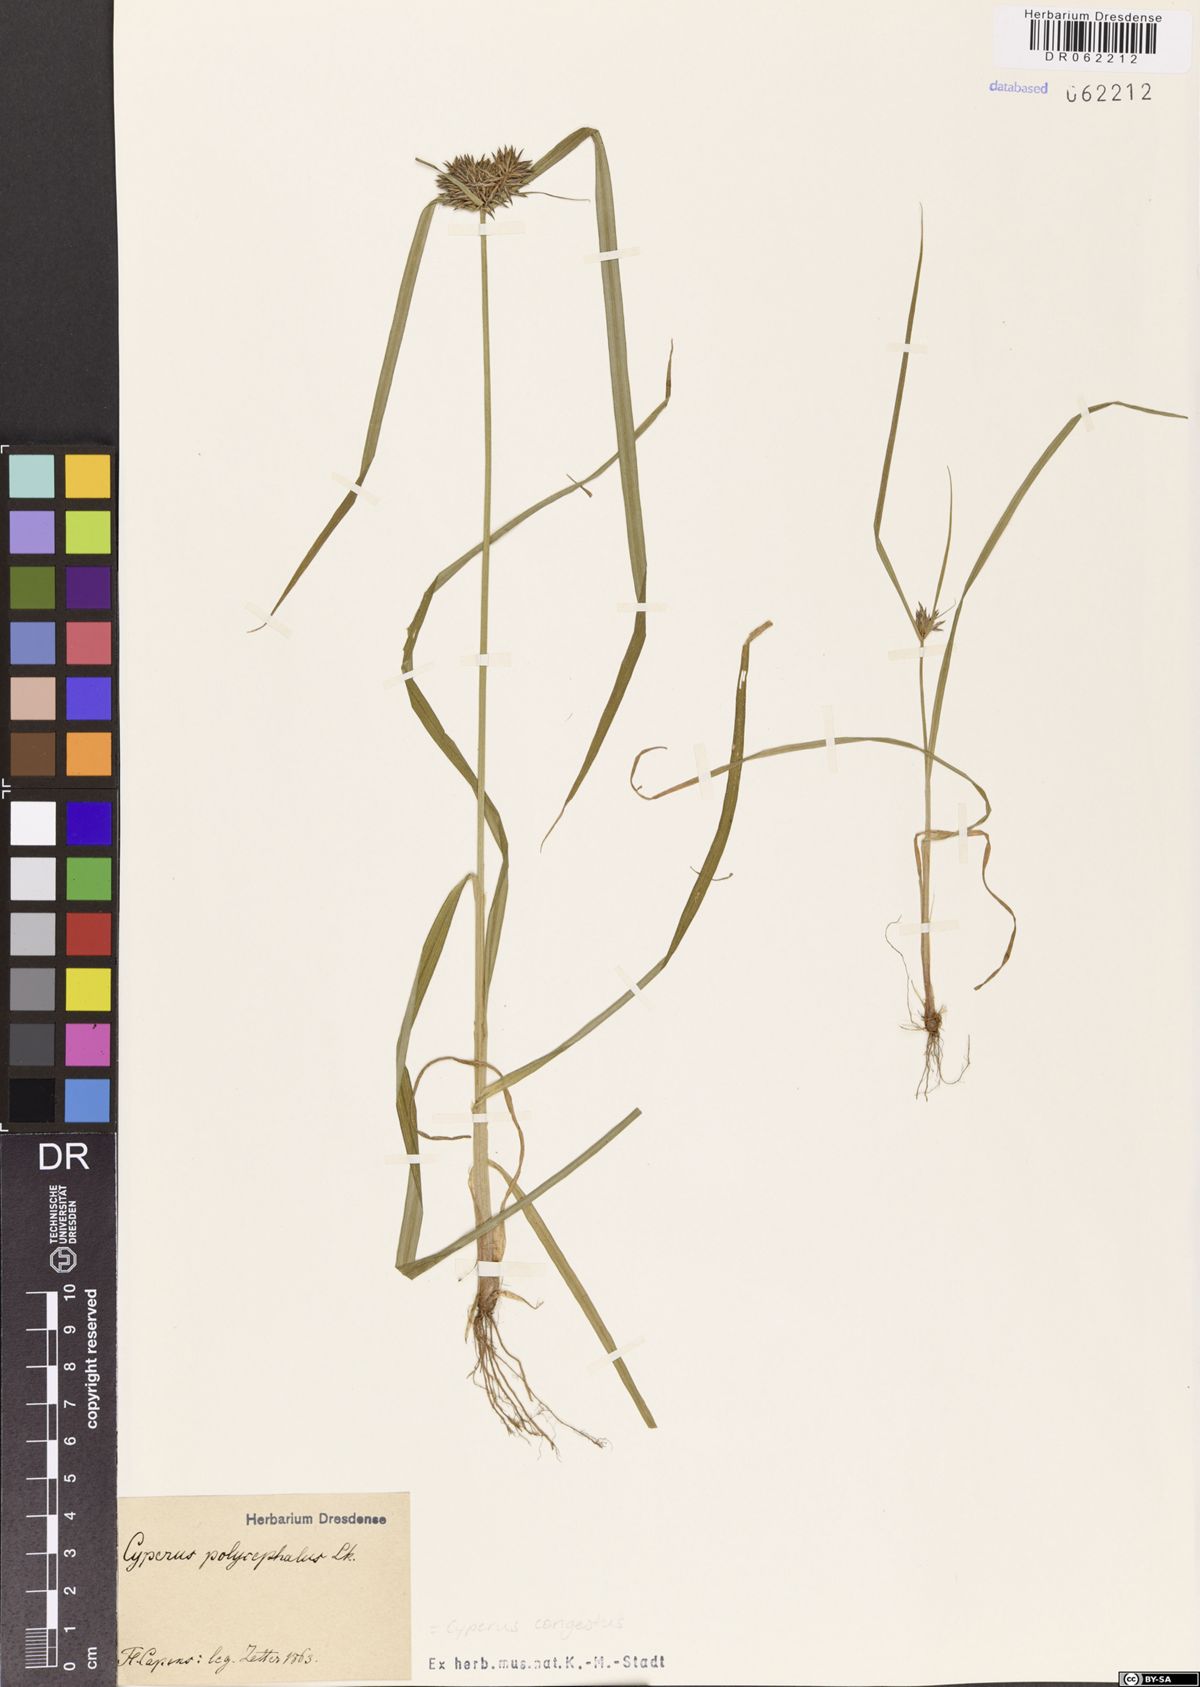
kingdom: Plantae
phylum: Tracheophyta
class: Liliopsida
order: Poales
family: Cyperaceae
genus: Cyperus
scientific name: Cyperus congestus
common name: Dense flat sedge
